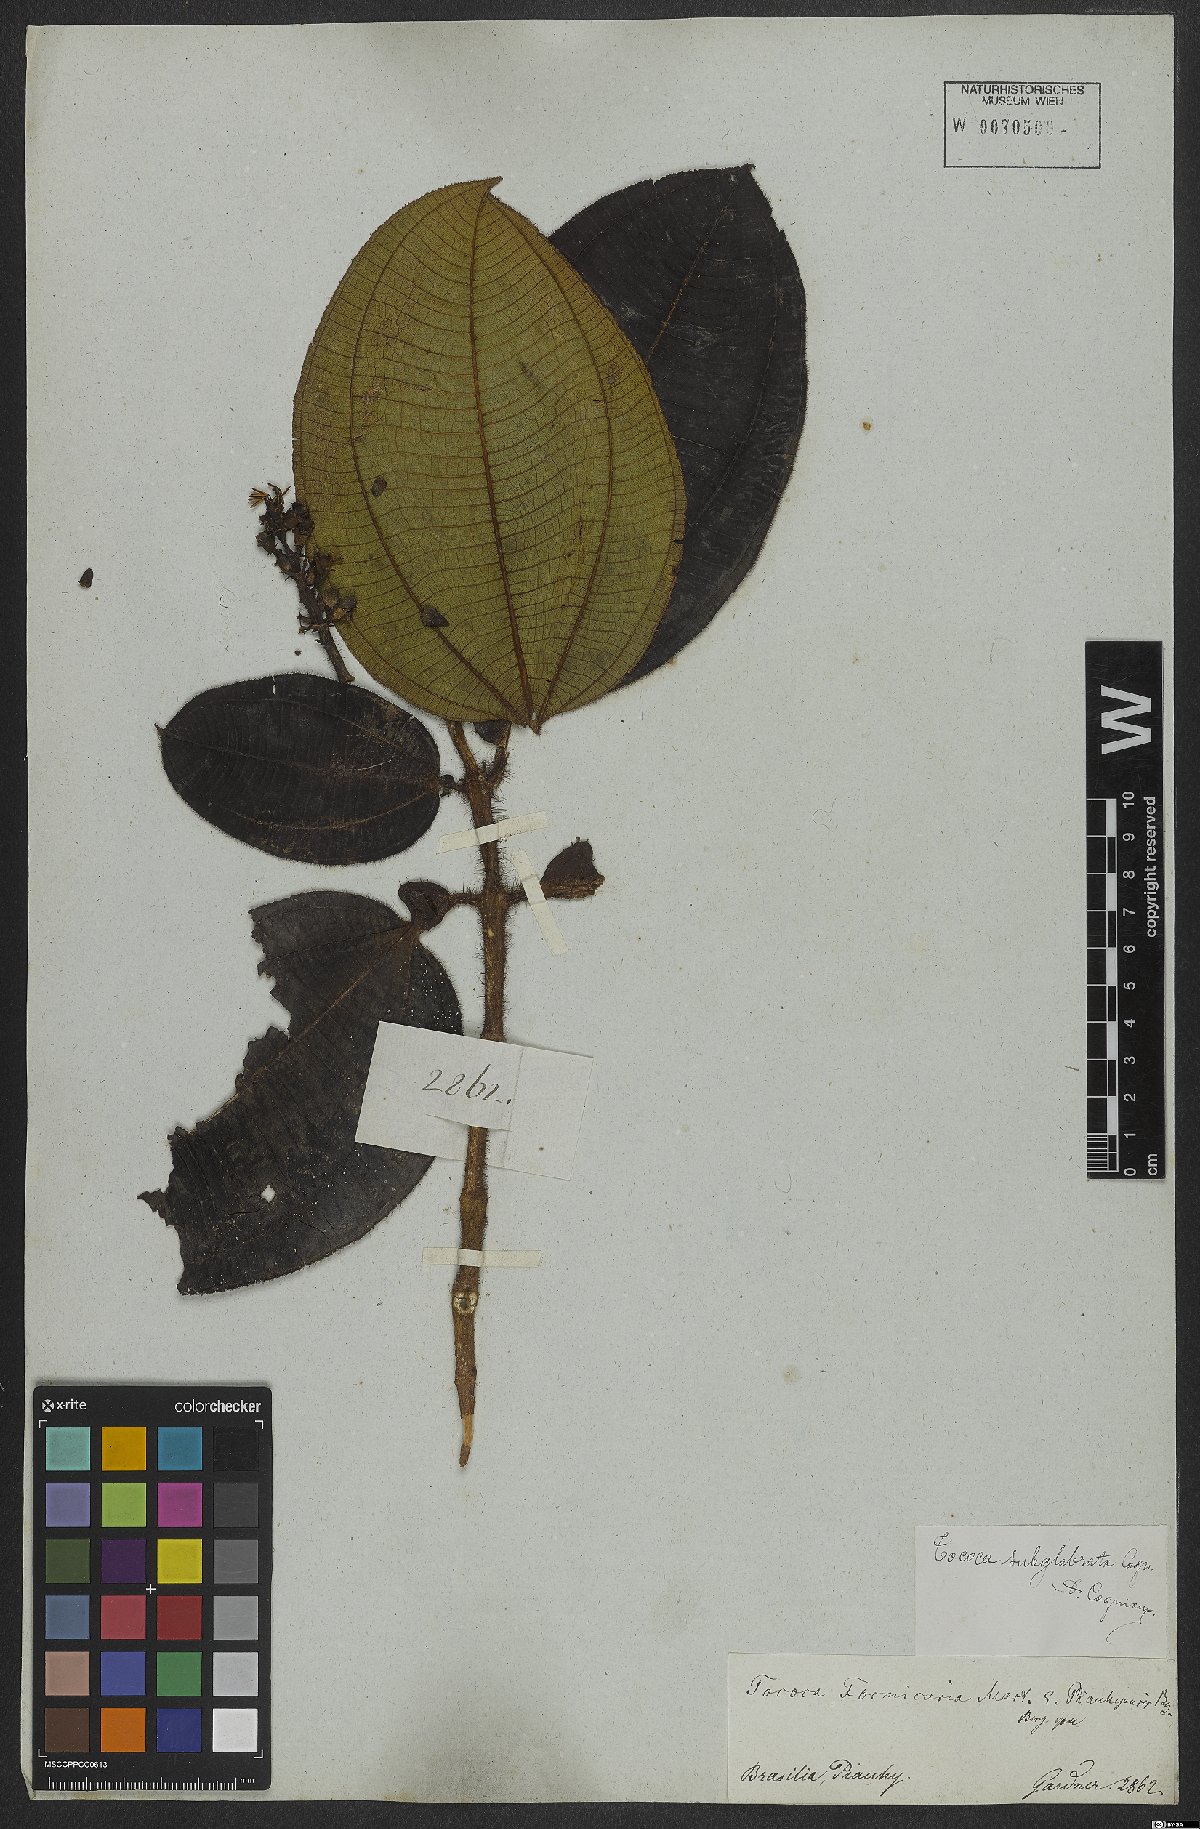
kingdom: Plantae
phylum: Tracheophyta
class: Magnoliopsida
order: Myrtales
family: Melastomataceae
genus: Miconia
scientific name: Miconia tococa
